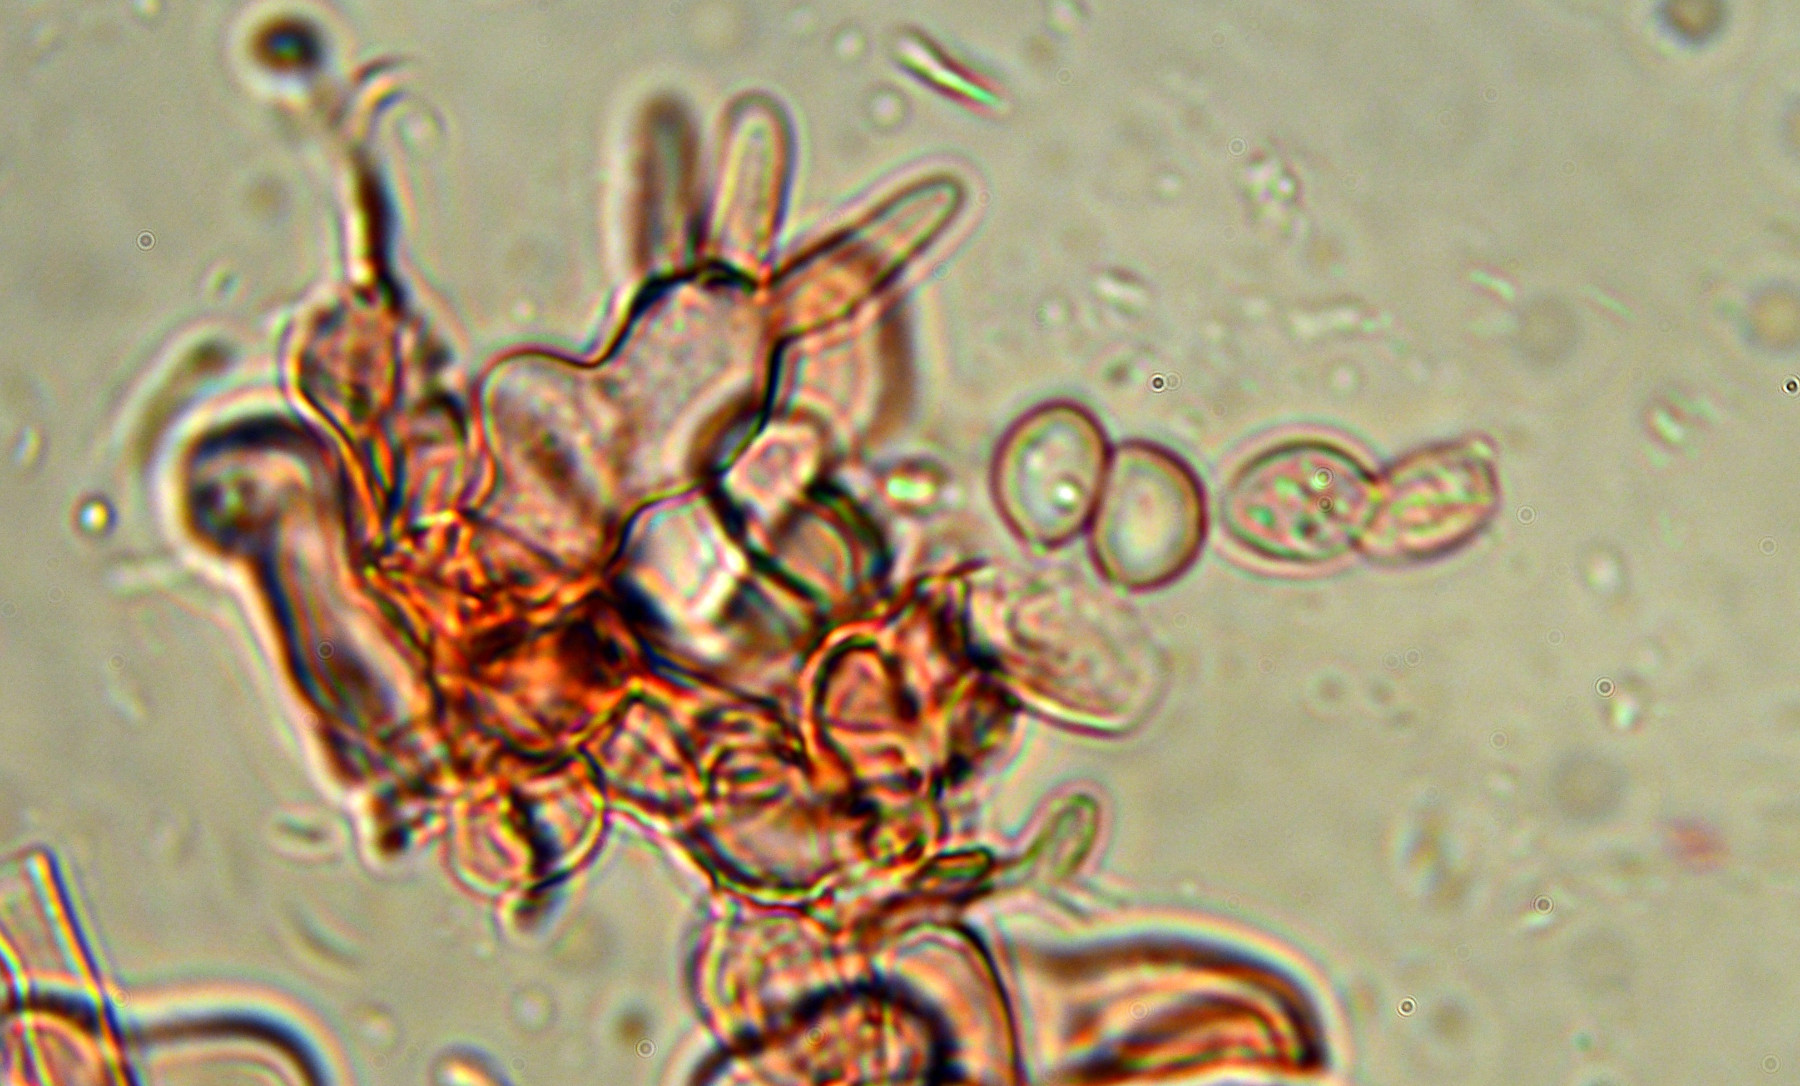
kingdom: Fungi
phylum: Basidiomycota
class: Agaricomycetes
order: Cantharellales
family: Ceratobasidiaceae
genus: Rhizoctonia
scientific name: Rhizoctonia ochracea
